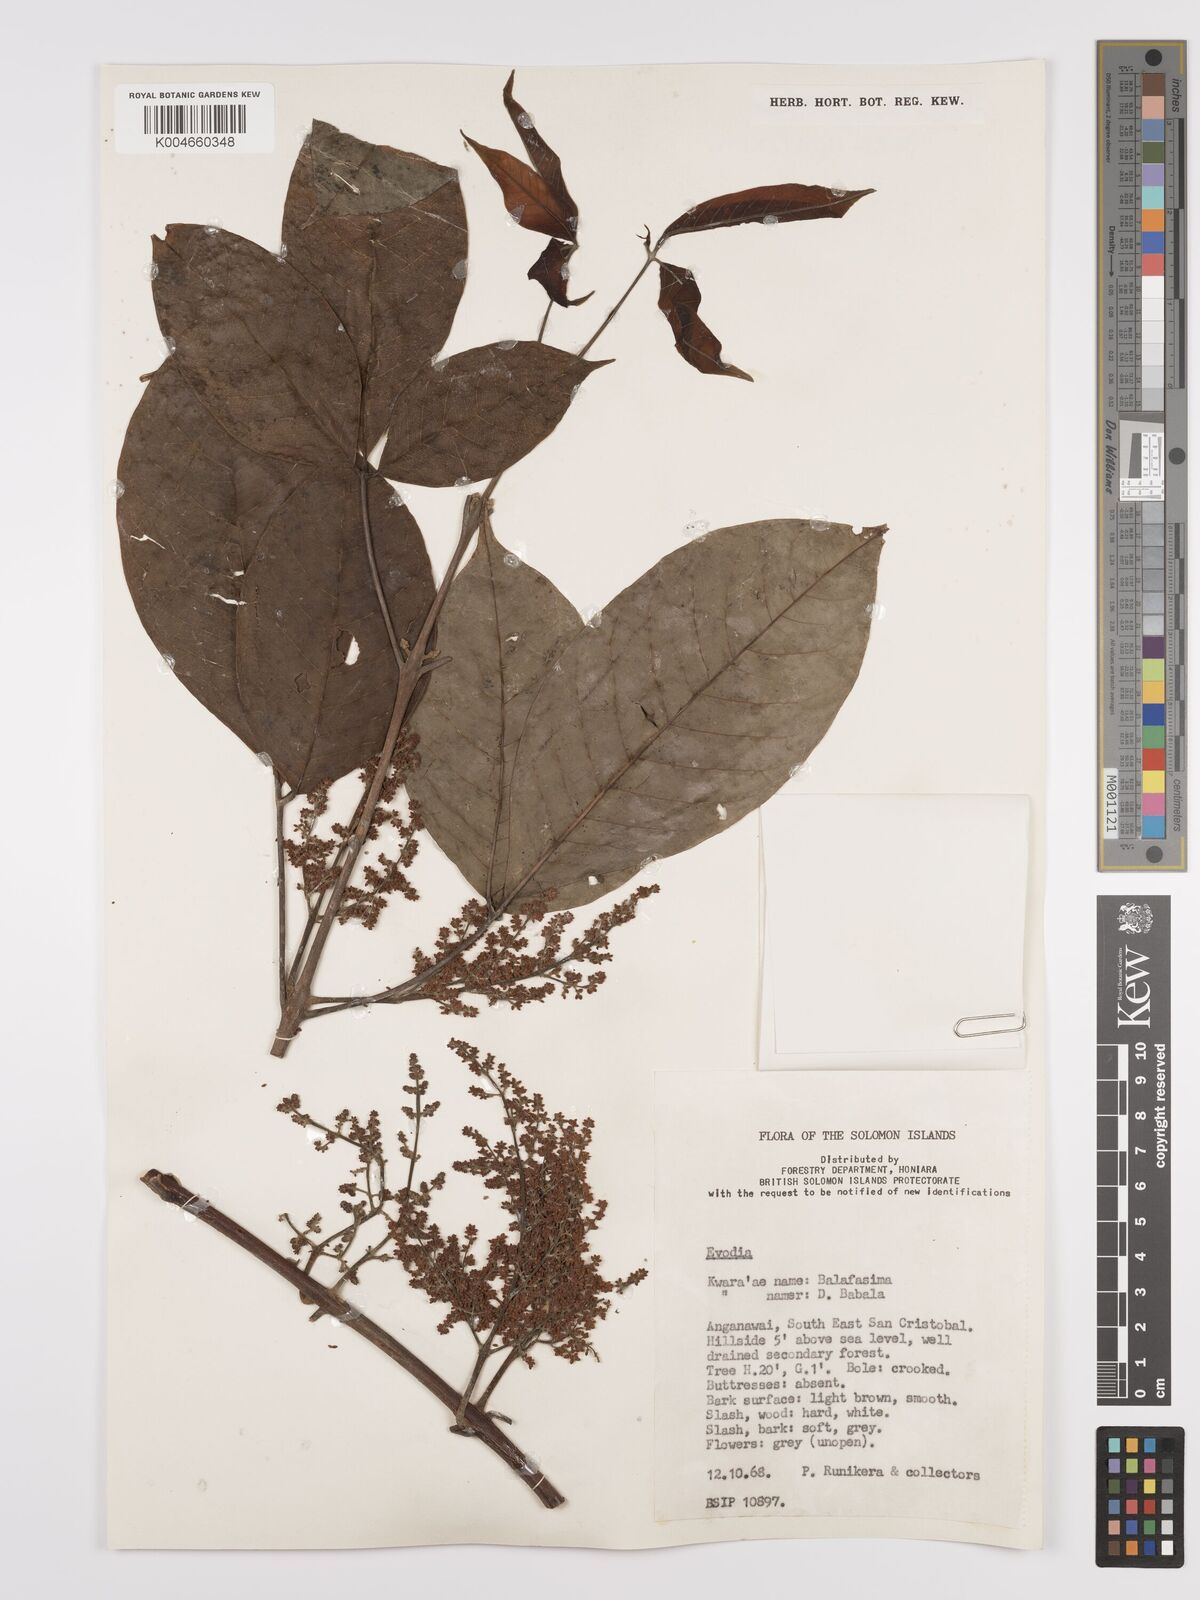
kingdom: Plantae
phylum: Tracheophyta
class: Magnoliopsida
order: Sapindales
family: Rutaceae
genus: Euodia
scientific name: Euodia
